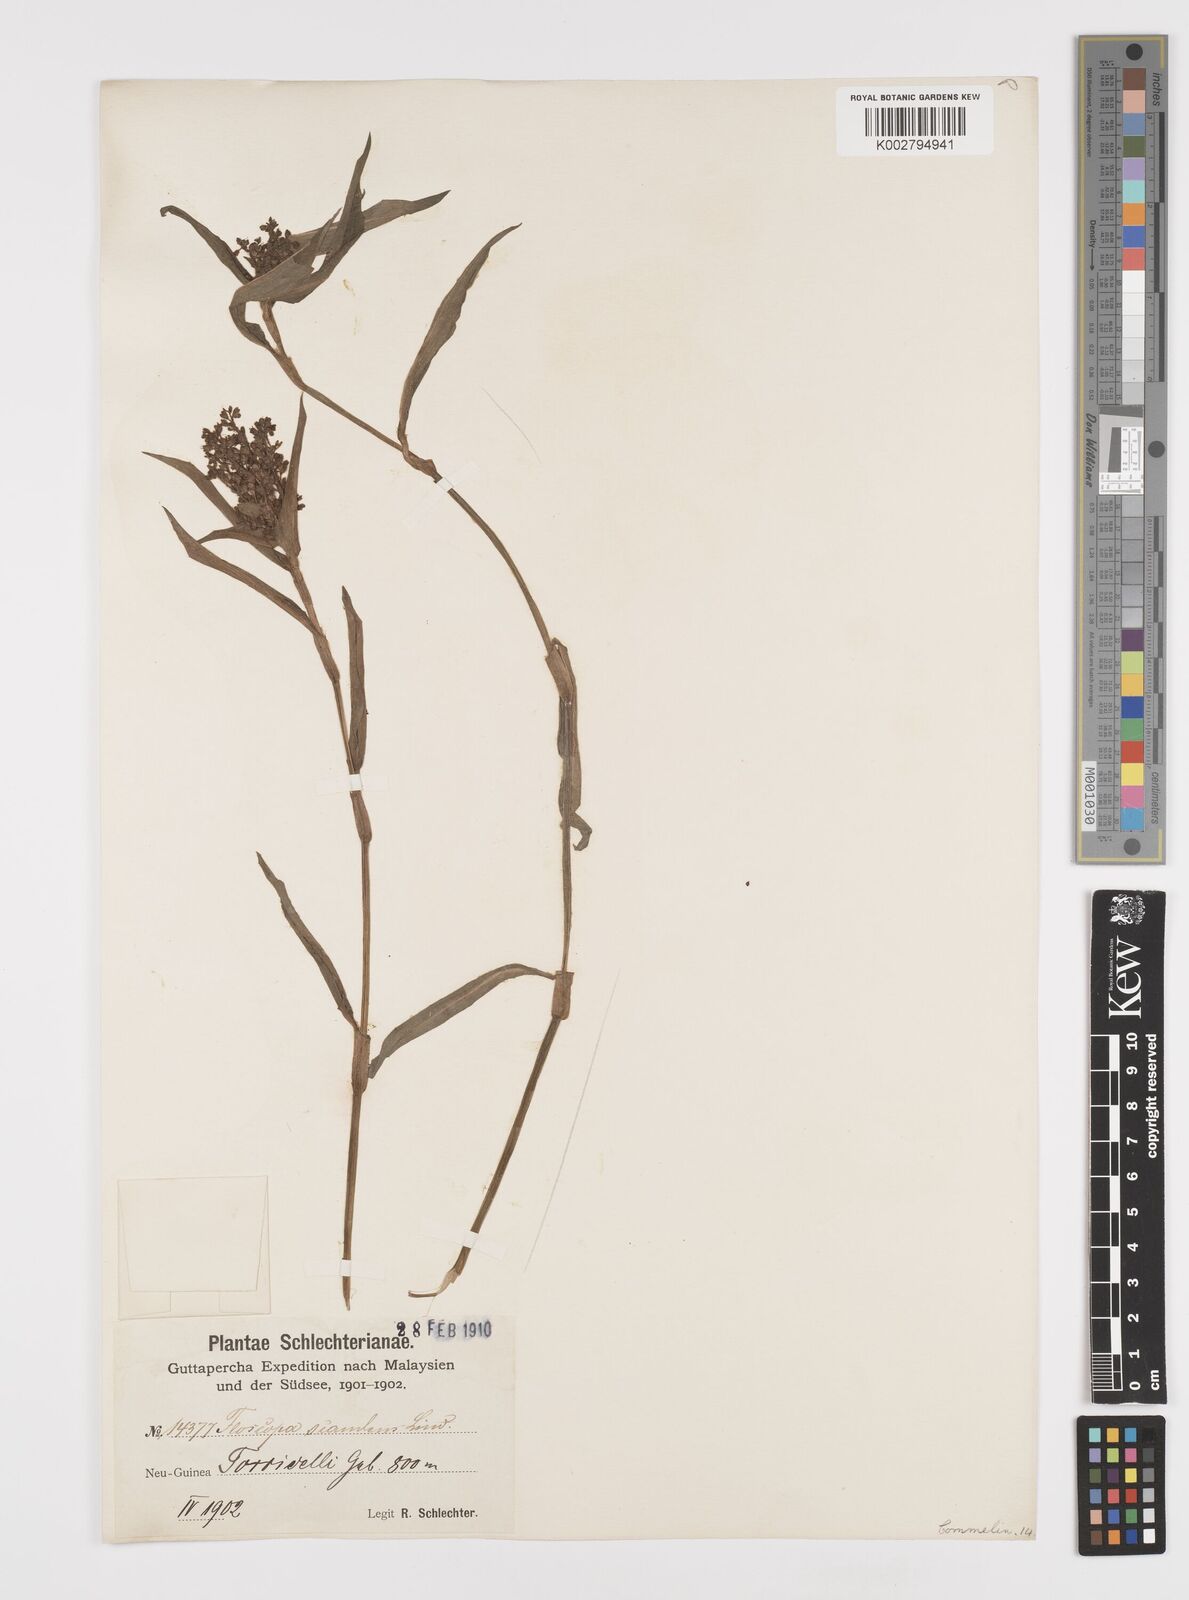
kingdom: Plantae
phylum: Tracheophyta
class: Liliopsida
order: Commelinales
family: Commelinaceae
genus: Floscopa
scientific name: Floscopa scandens
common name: Climbing flower cup
